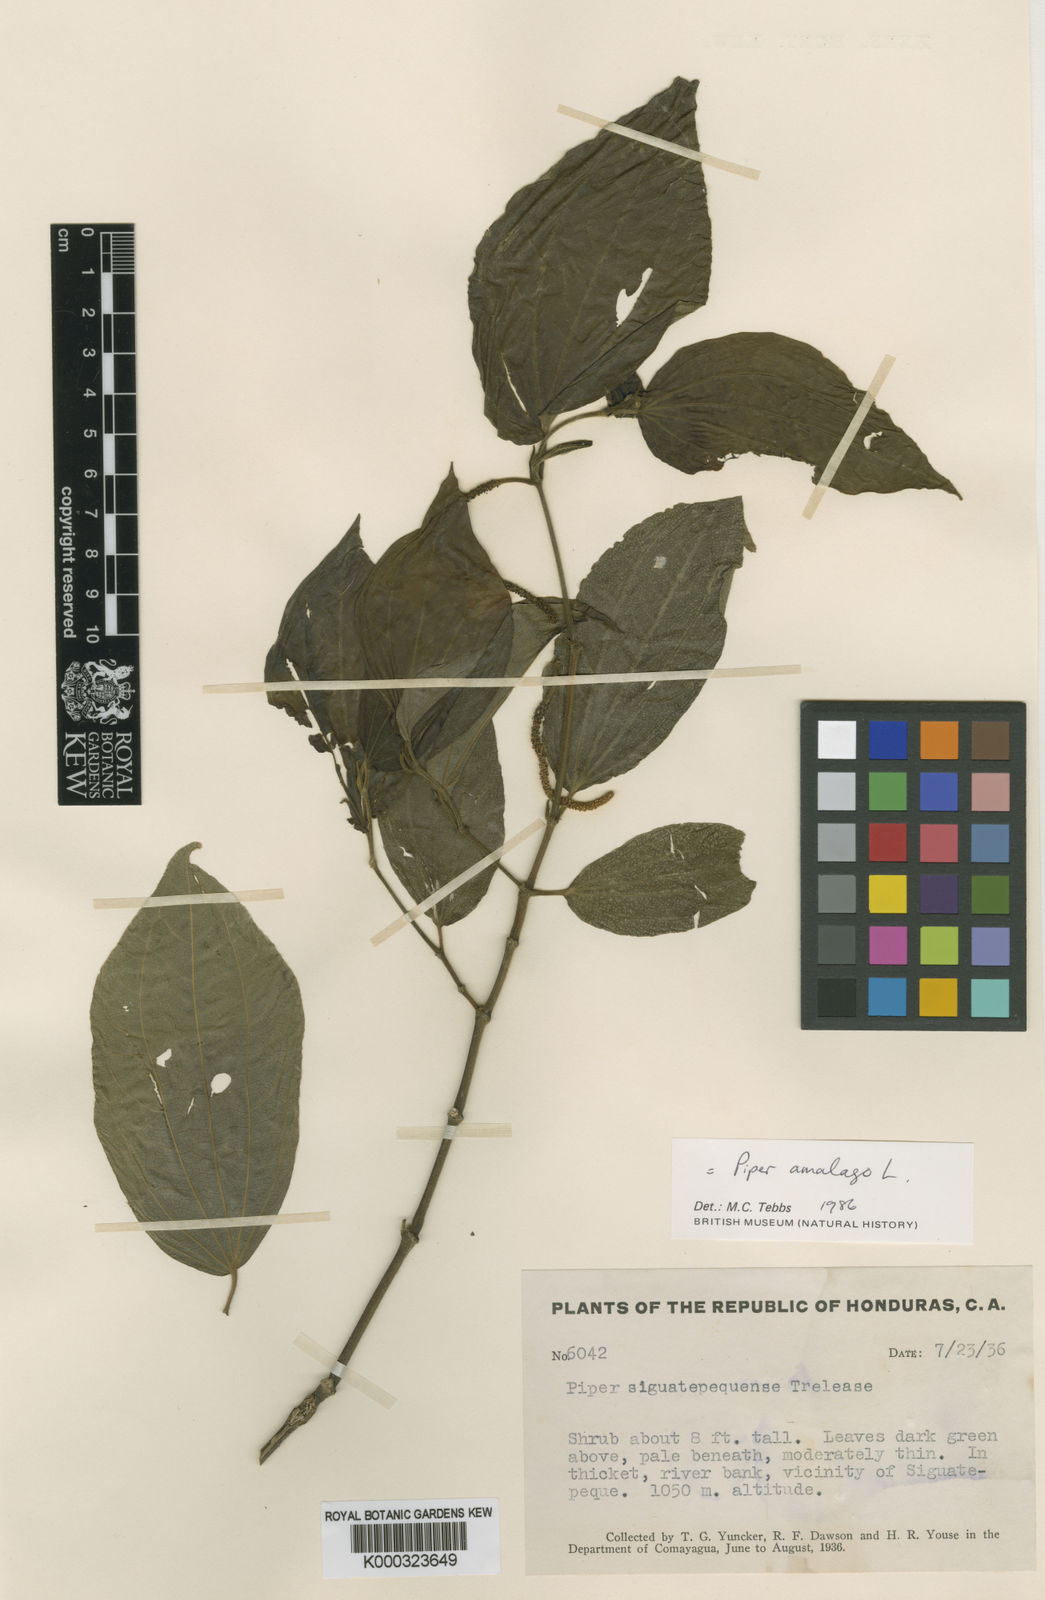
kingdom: Plantae
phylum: Tracheophyta
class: Magnoliopsida
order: Piperales
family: Piperaceae
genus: Piper
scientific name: Piper martensianum
